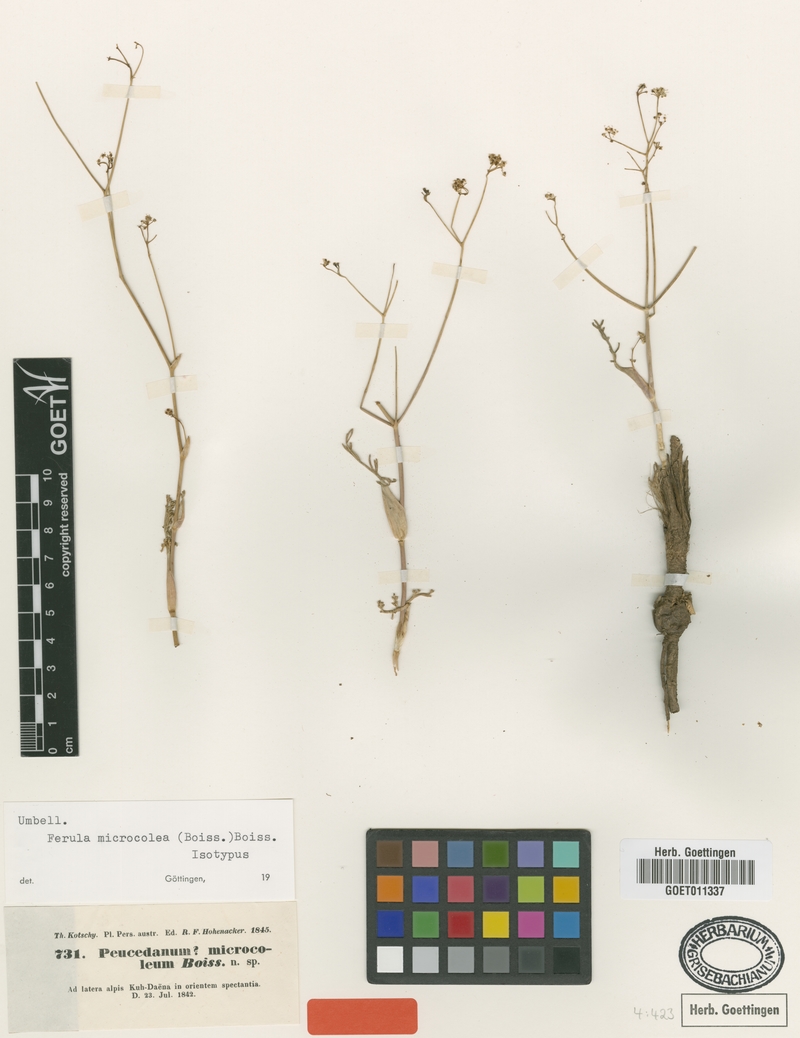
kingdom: Plantae
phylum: Tracheophyta
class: Magnoliopsida
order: Apiales
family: Apiaceae
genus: Ferula
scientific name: Ferula microcolea
